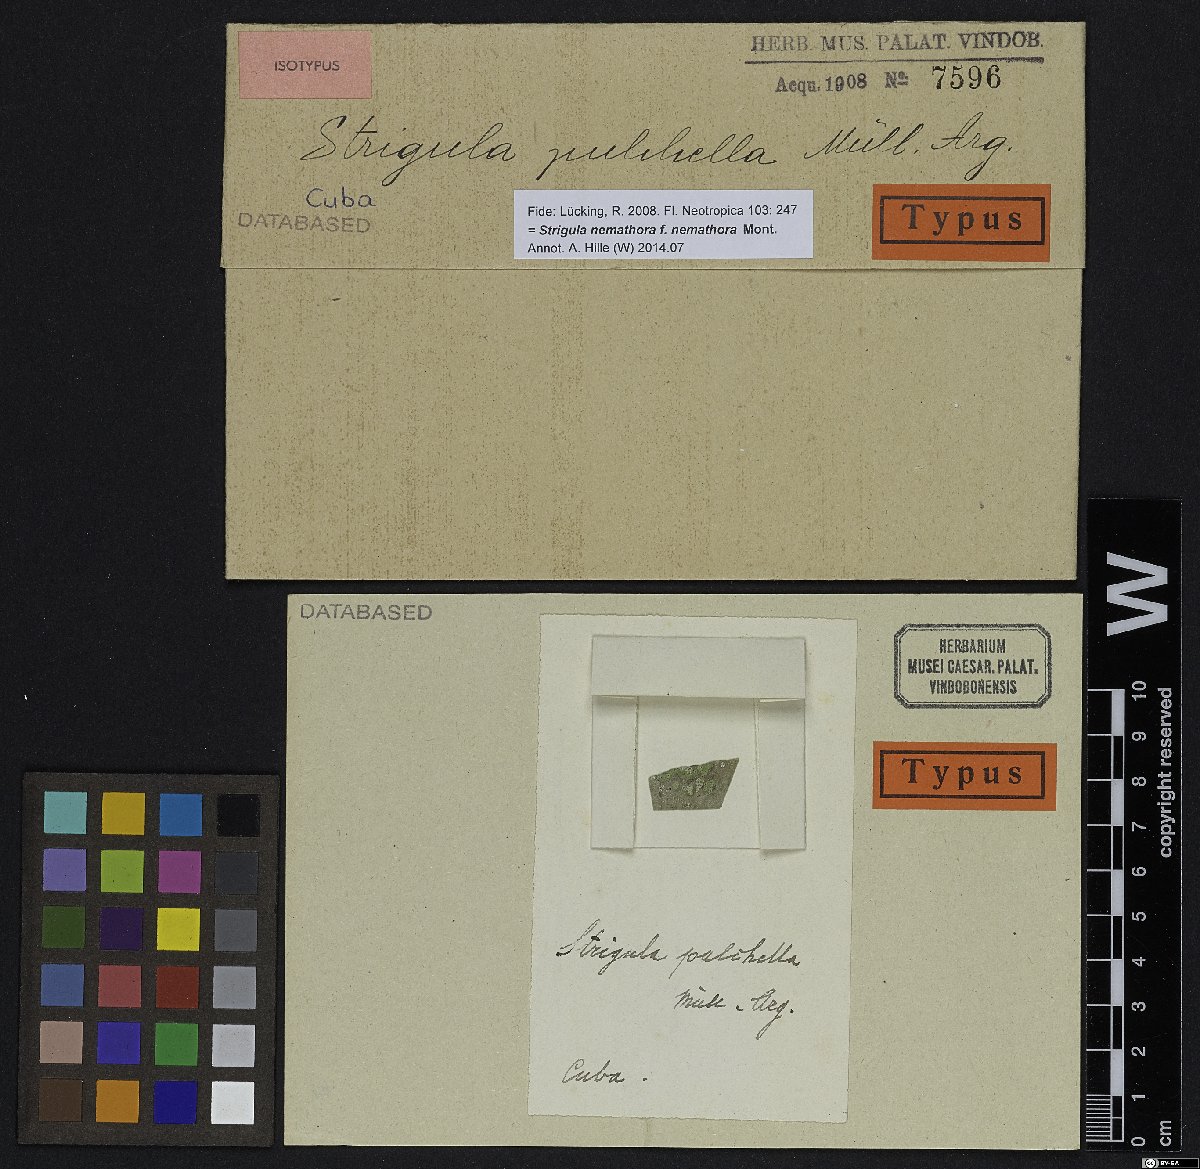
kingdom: Fungi
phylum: Ascomycota
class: Dothideomycetes
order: Strigulales
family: Strigulaceae
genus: Strigula
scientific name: Strigula
